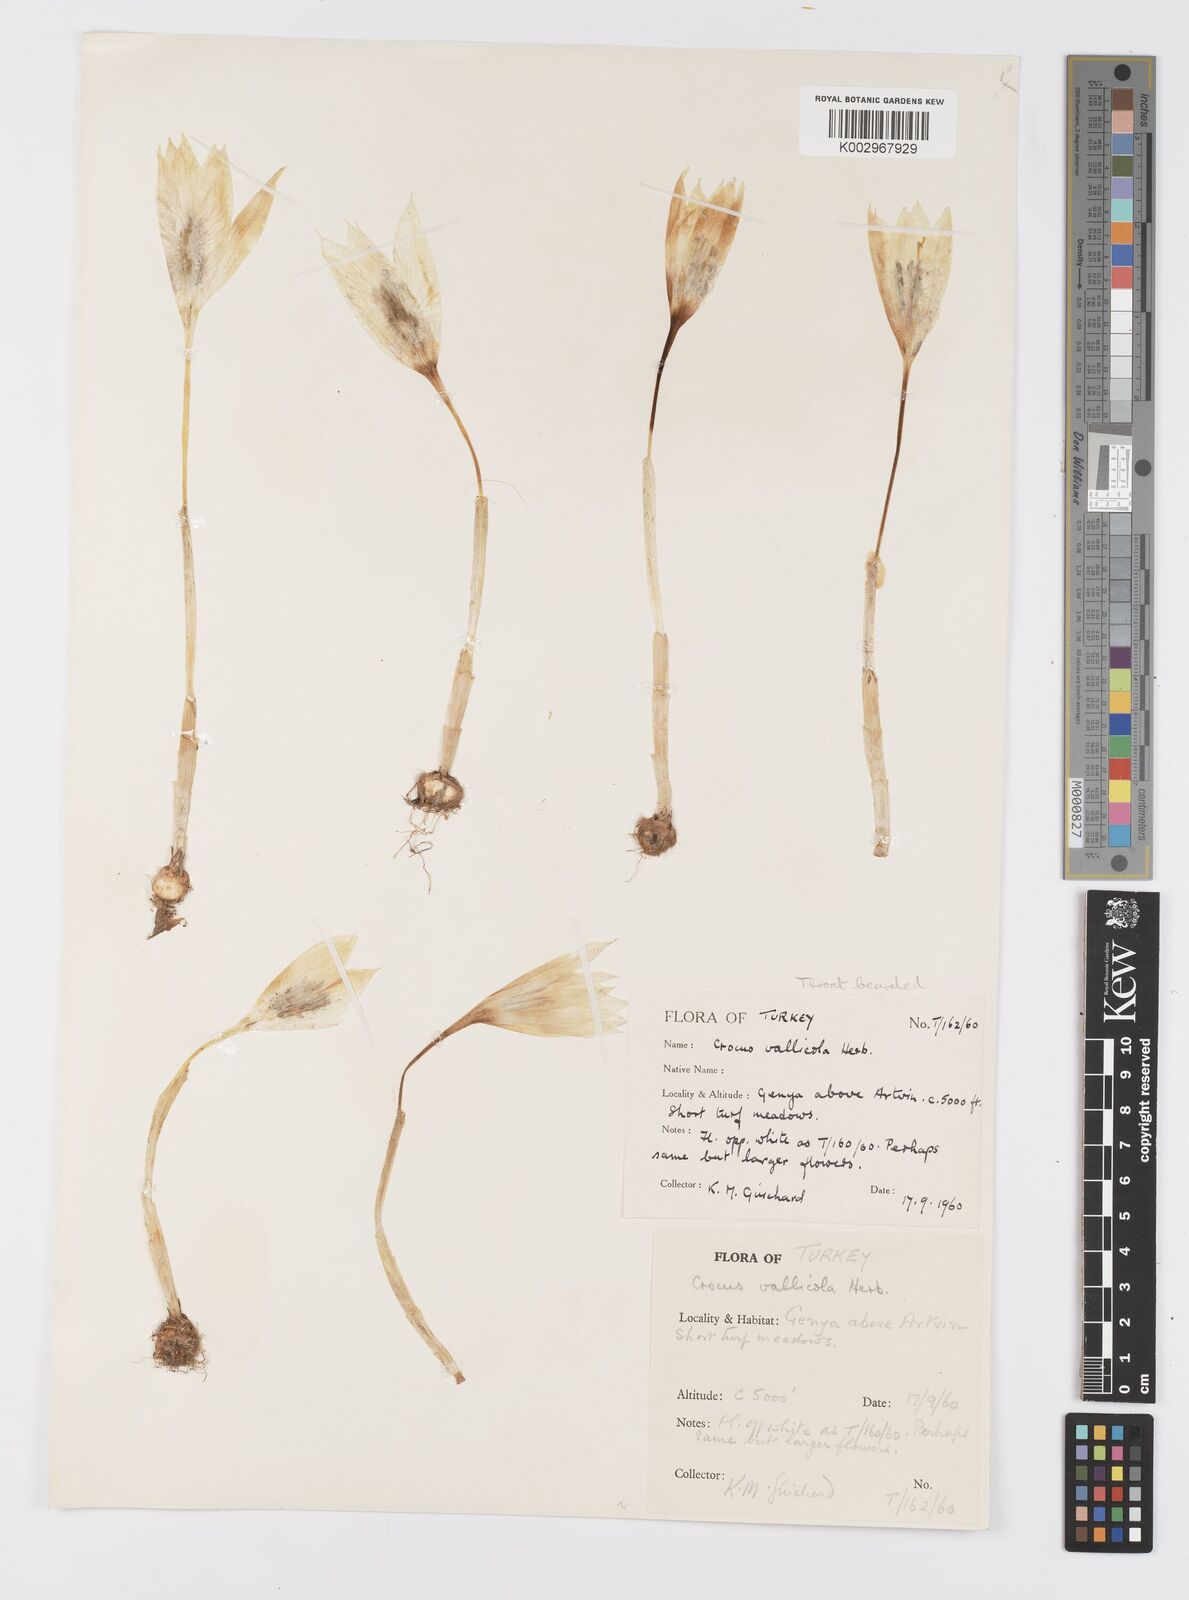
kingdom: Plantae
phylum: Tracheophyta
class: Liliopsida
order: Asparagales
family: Iridaceae
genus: Crocus
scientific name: Crocus vallicola
